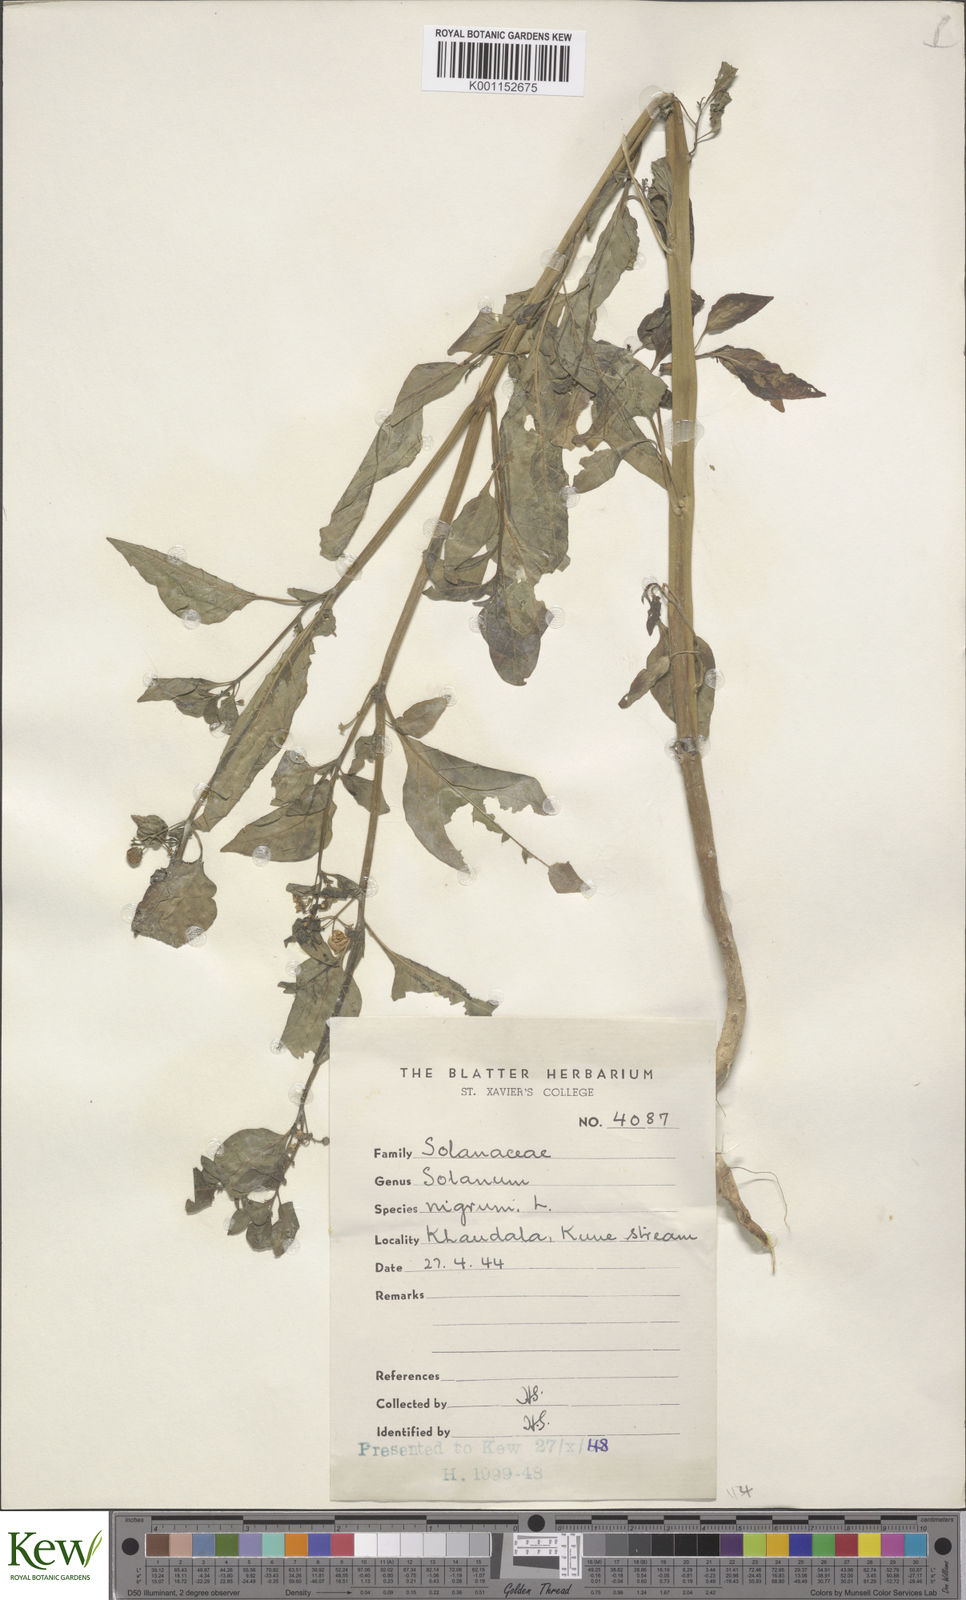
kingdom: Plantae
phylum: Tracheophyta
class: Magnoliopsida
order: Solanales
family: Solanaceae
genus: Solanum
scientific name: Solanum nigrum
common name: Black nightshade
